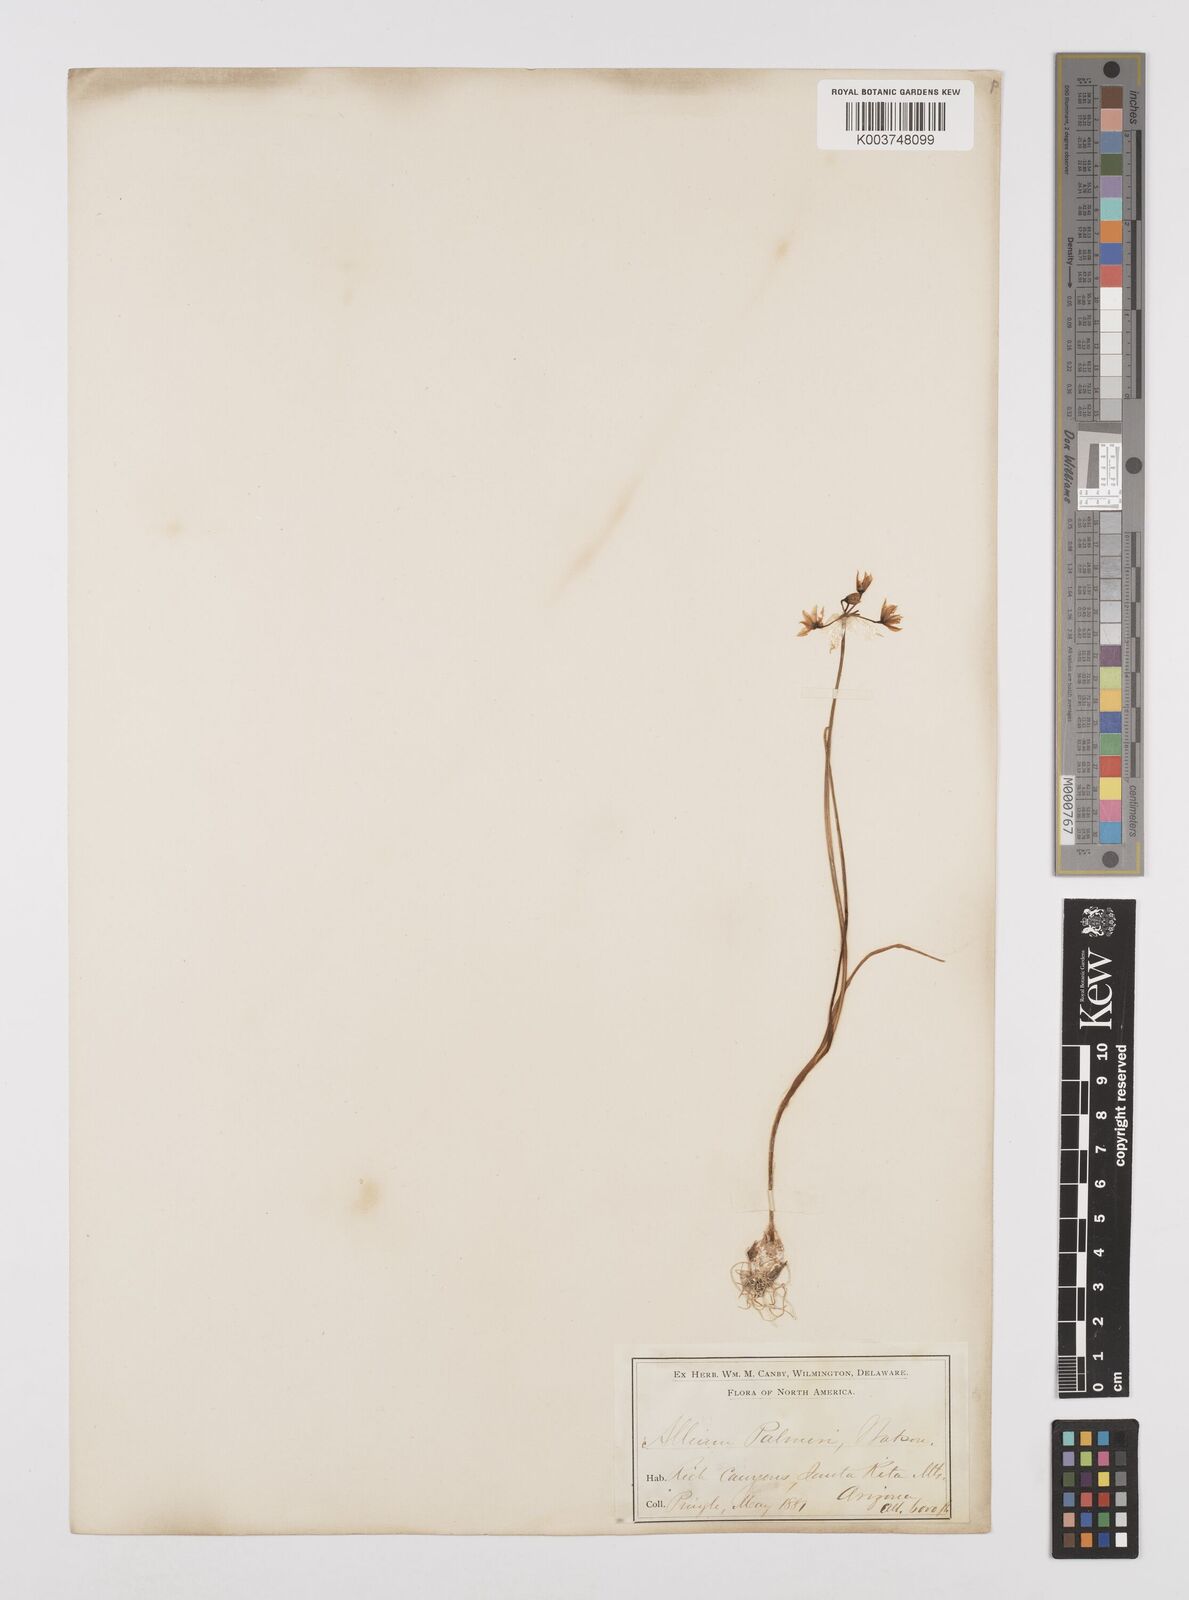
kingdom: Plantae
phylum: Tracheophyta
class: Liliopsida
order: Asparagales
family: Amaryllidaceae
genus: Allium
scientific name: Allium bisceptrum
